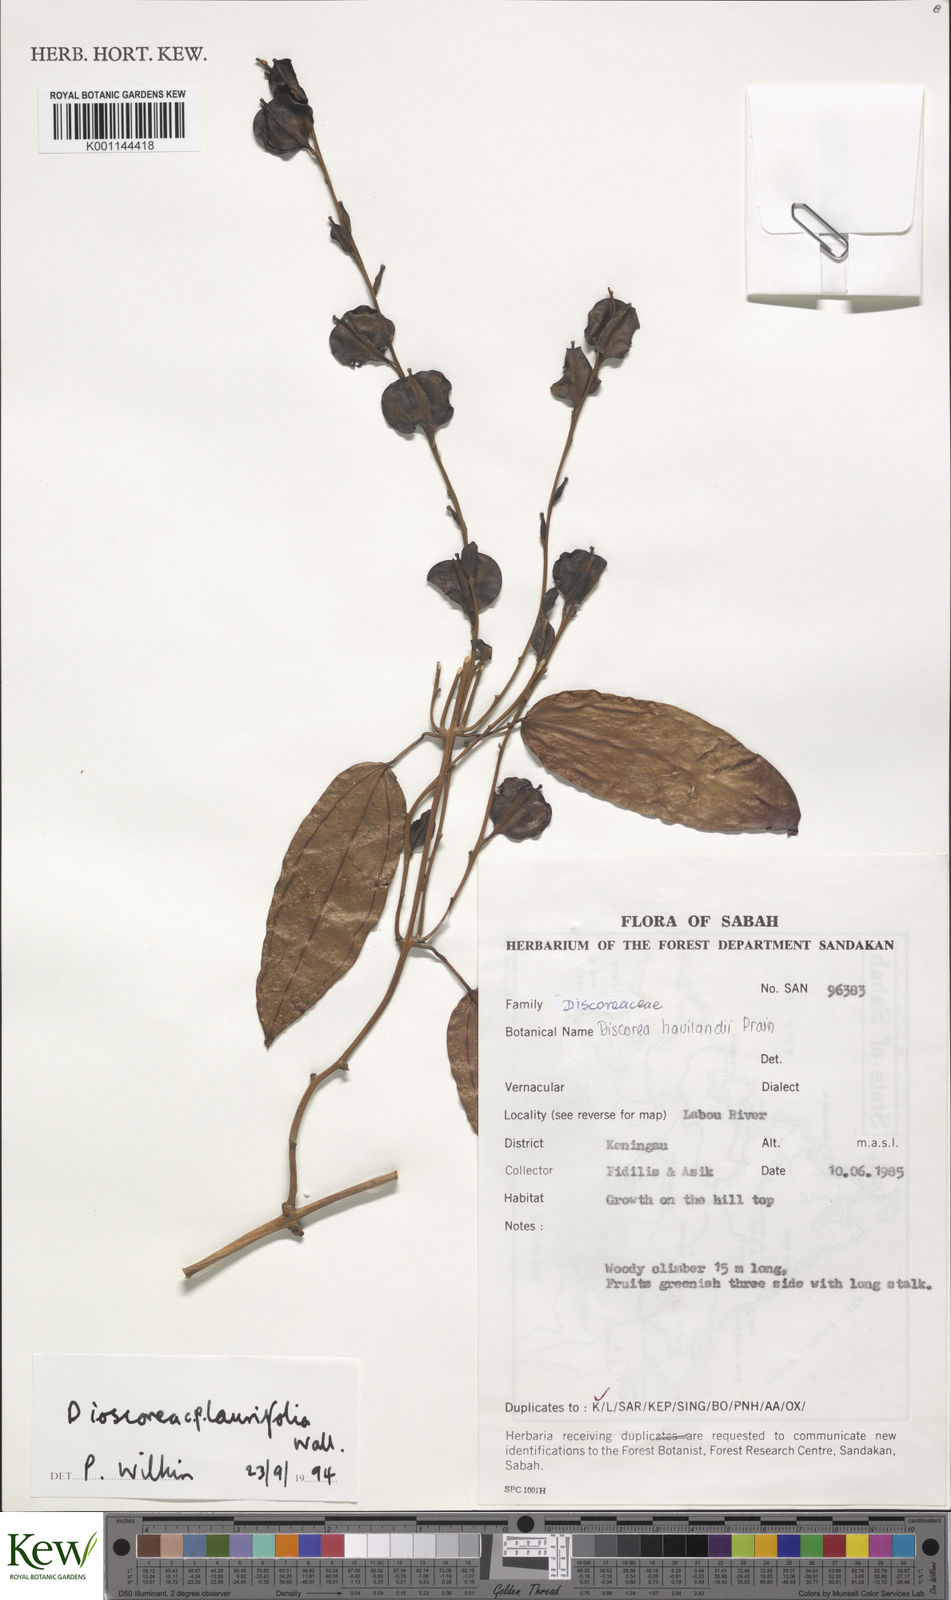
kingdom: Plantae
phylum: Tracheophyta
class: Liliopsida
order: Dioscoreales
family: Dioscoreaceae
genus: Dioscorea
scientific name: Dioscorea laurifolia
